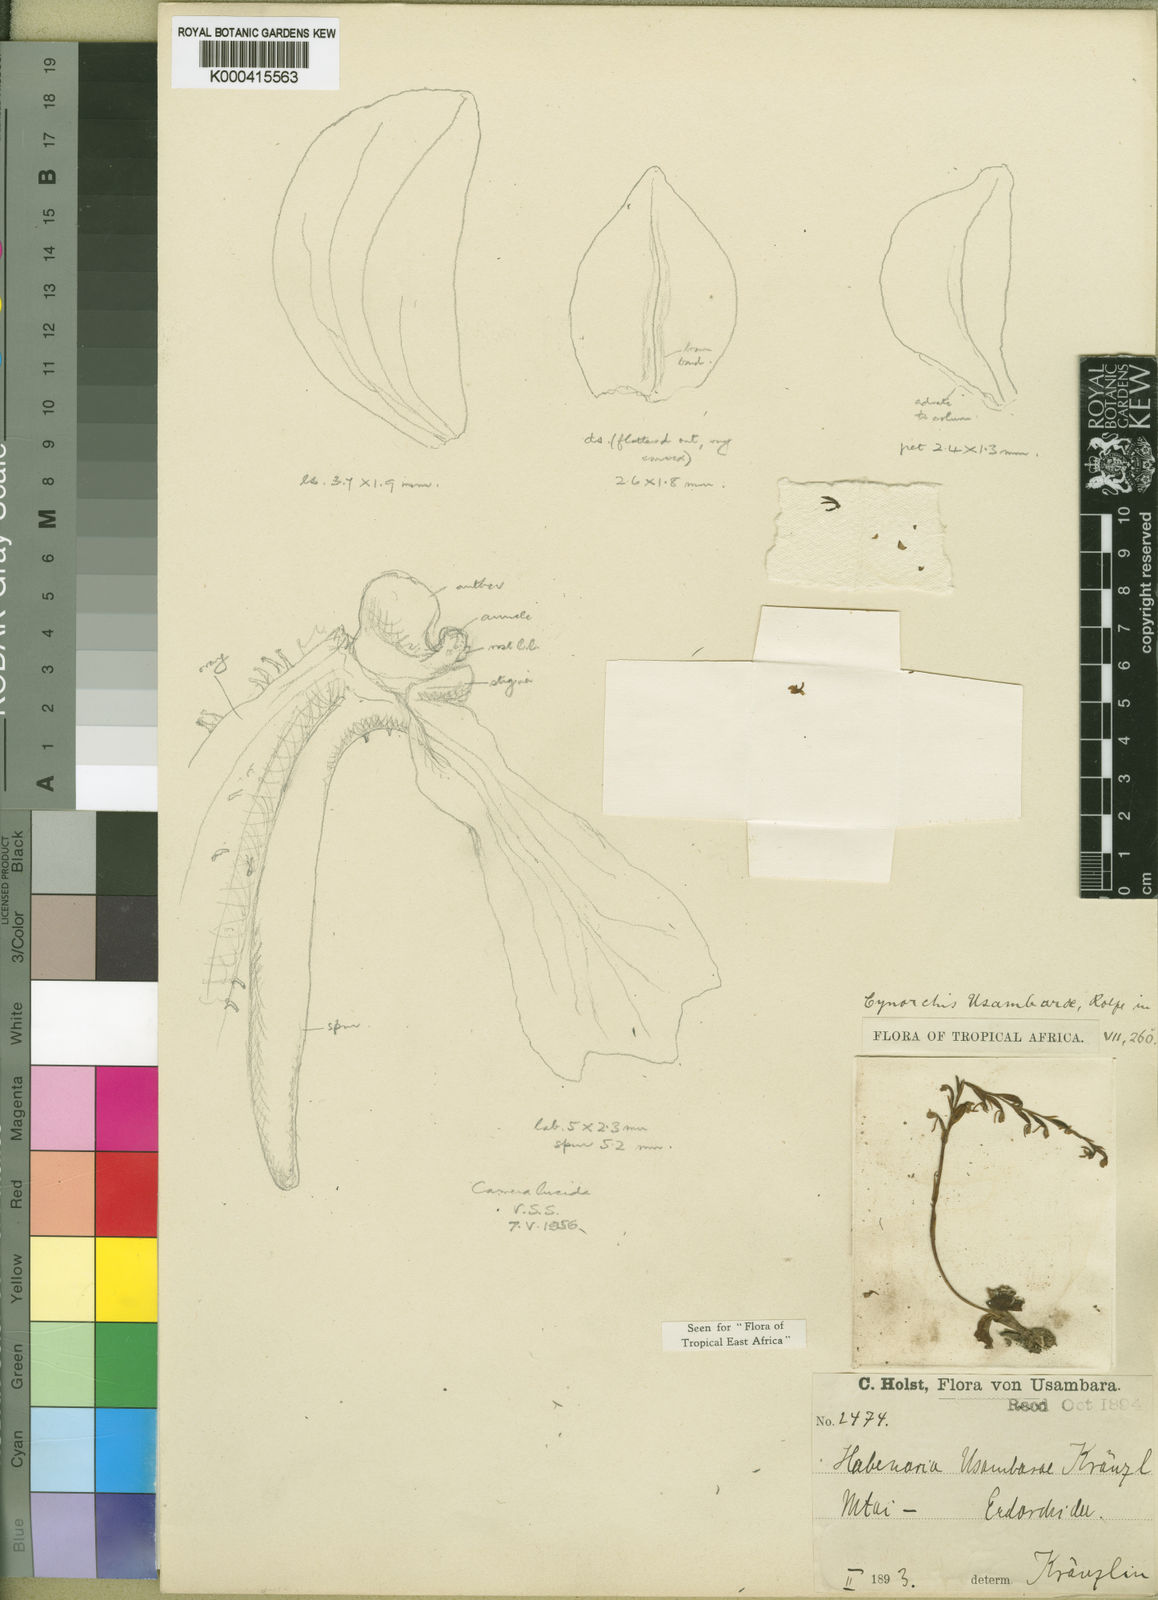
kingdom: Plantae
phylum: Tracheophyta
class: Liliopsida
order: Asparagales
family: Orchidaceae
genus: Cynorkis
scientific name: Cynorkis usambarae
